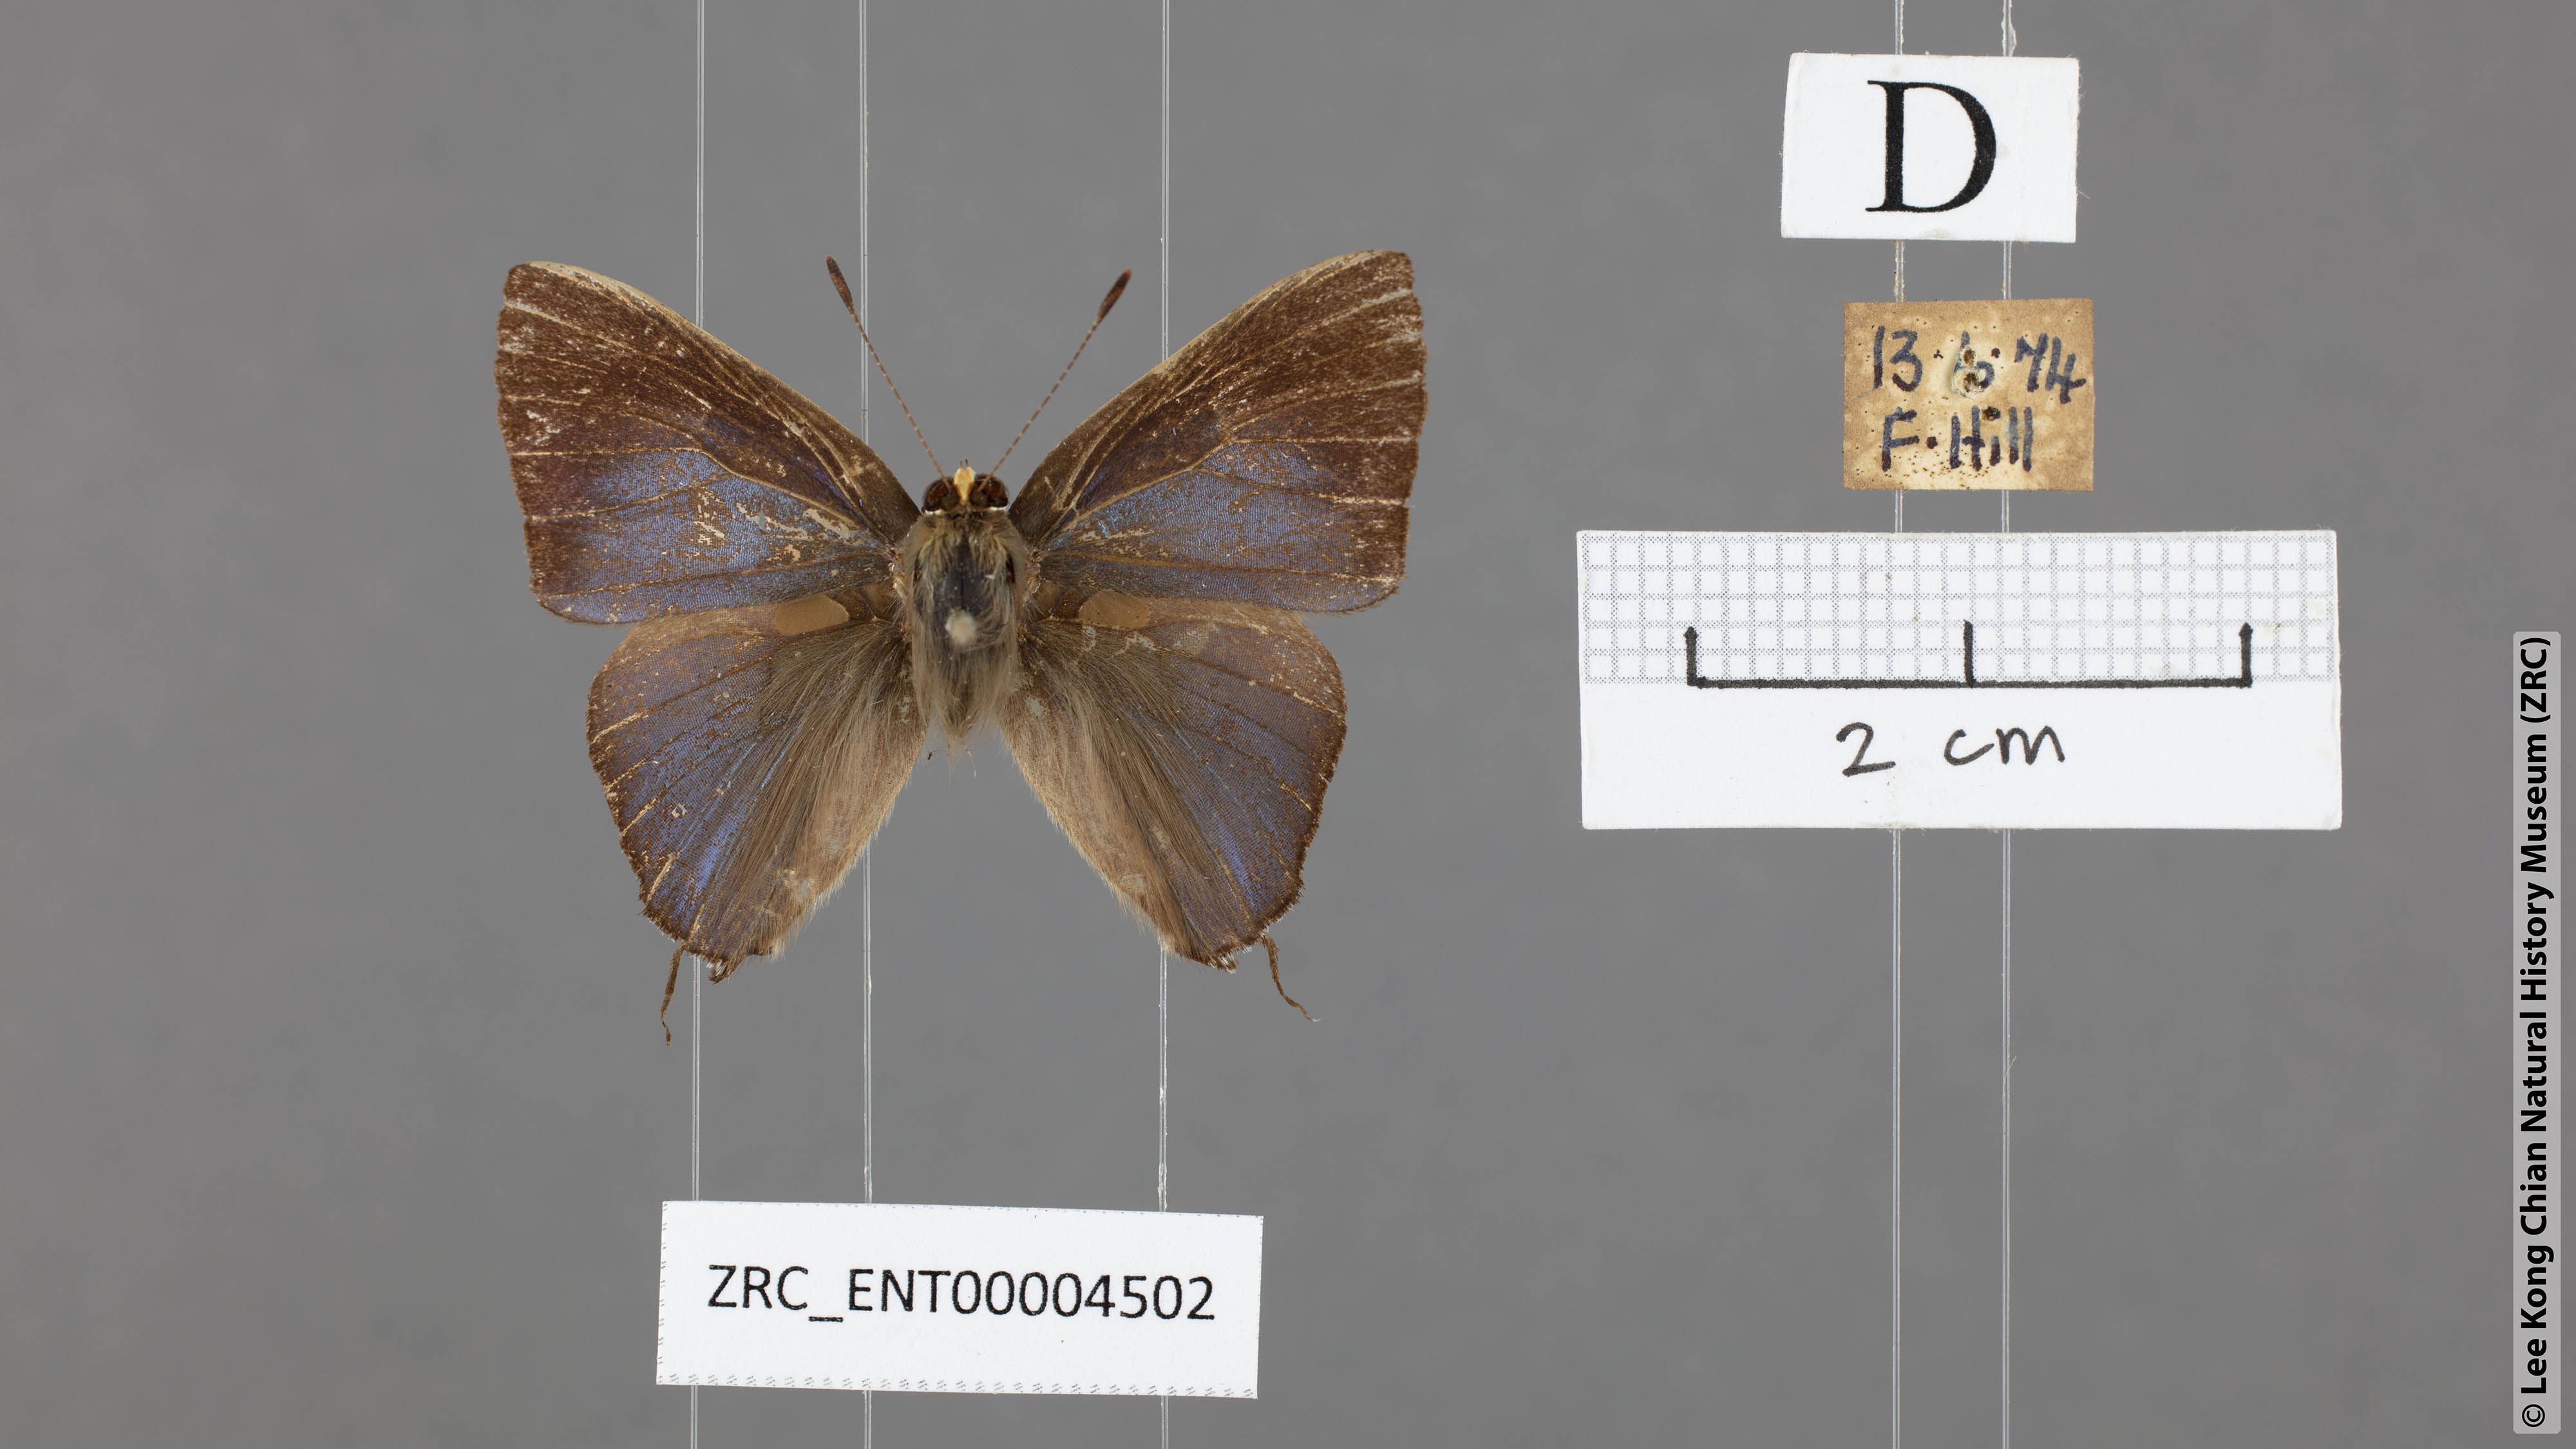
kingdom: Animalia
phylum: Arthropoda
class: Insecta
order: Lepidoptera
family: Lycaenidae
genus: Rapala
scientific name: Rapala nissa
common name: Common flash
